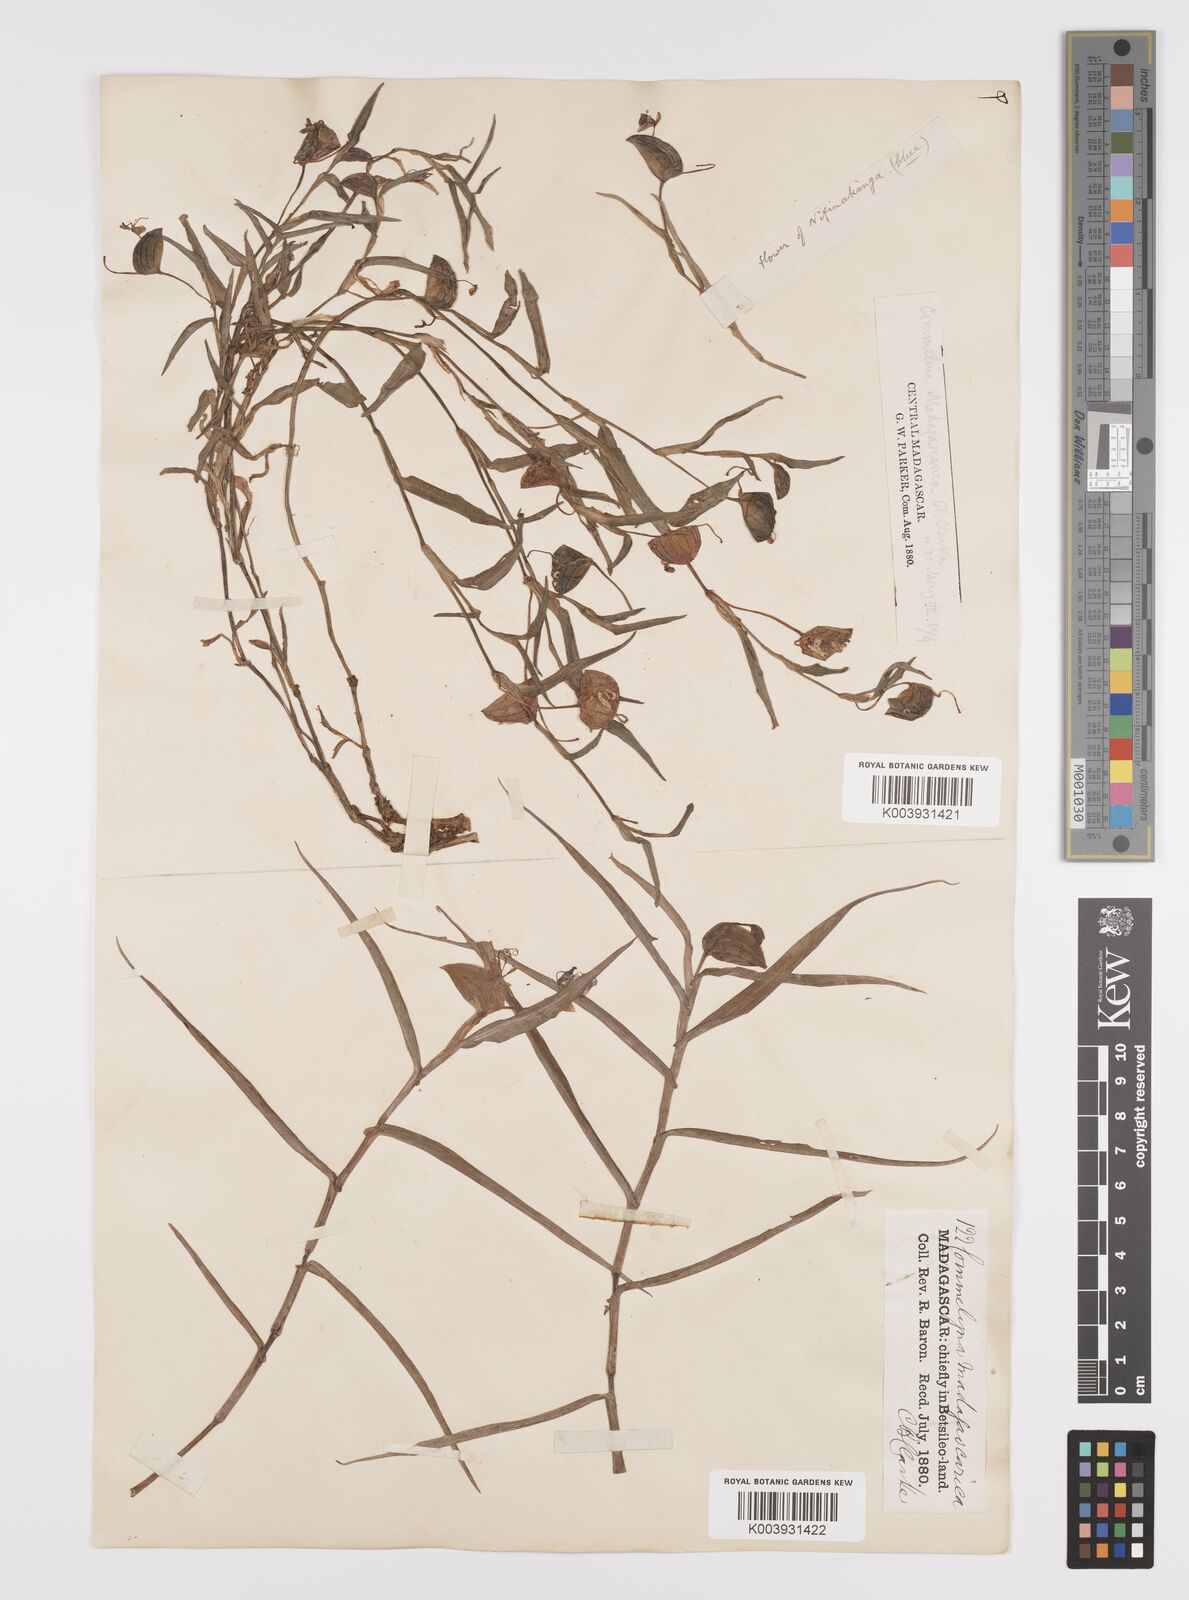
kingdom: Plantae
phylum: Tracheophyta
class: Liliopsida
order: Commelinales
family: Commelinaceae
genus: Commelina
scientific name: Commelina madagascarica
